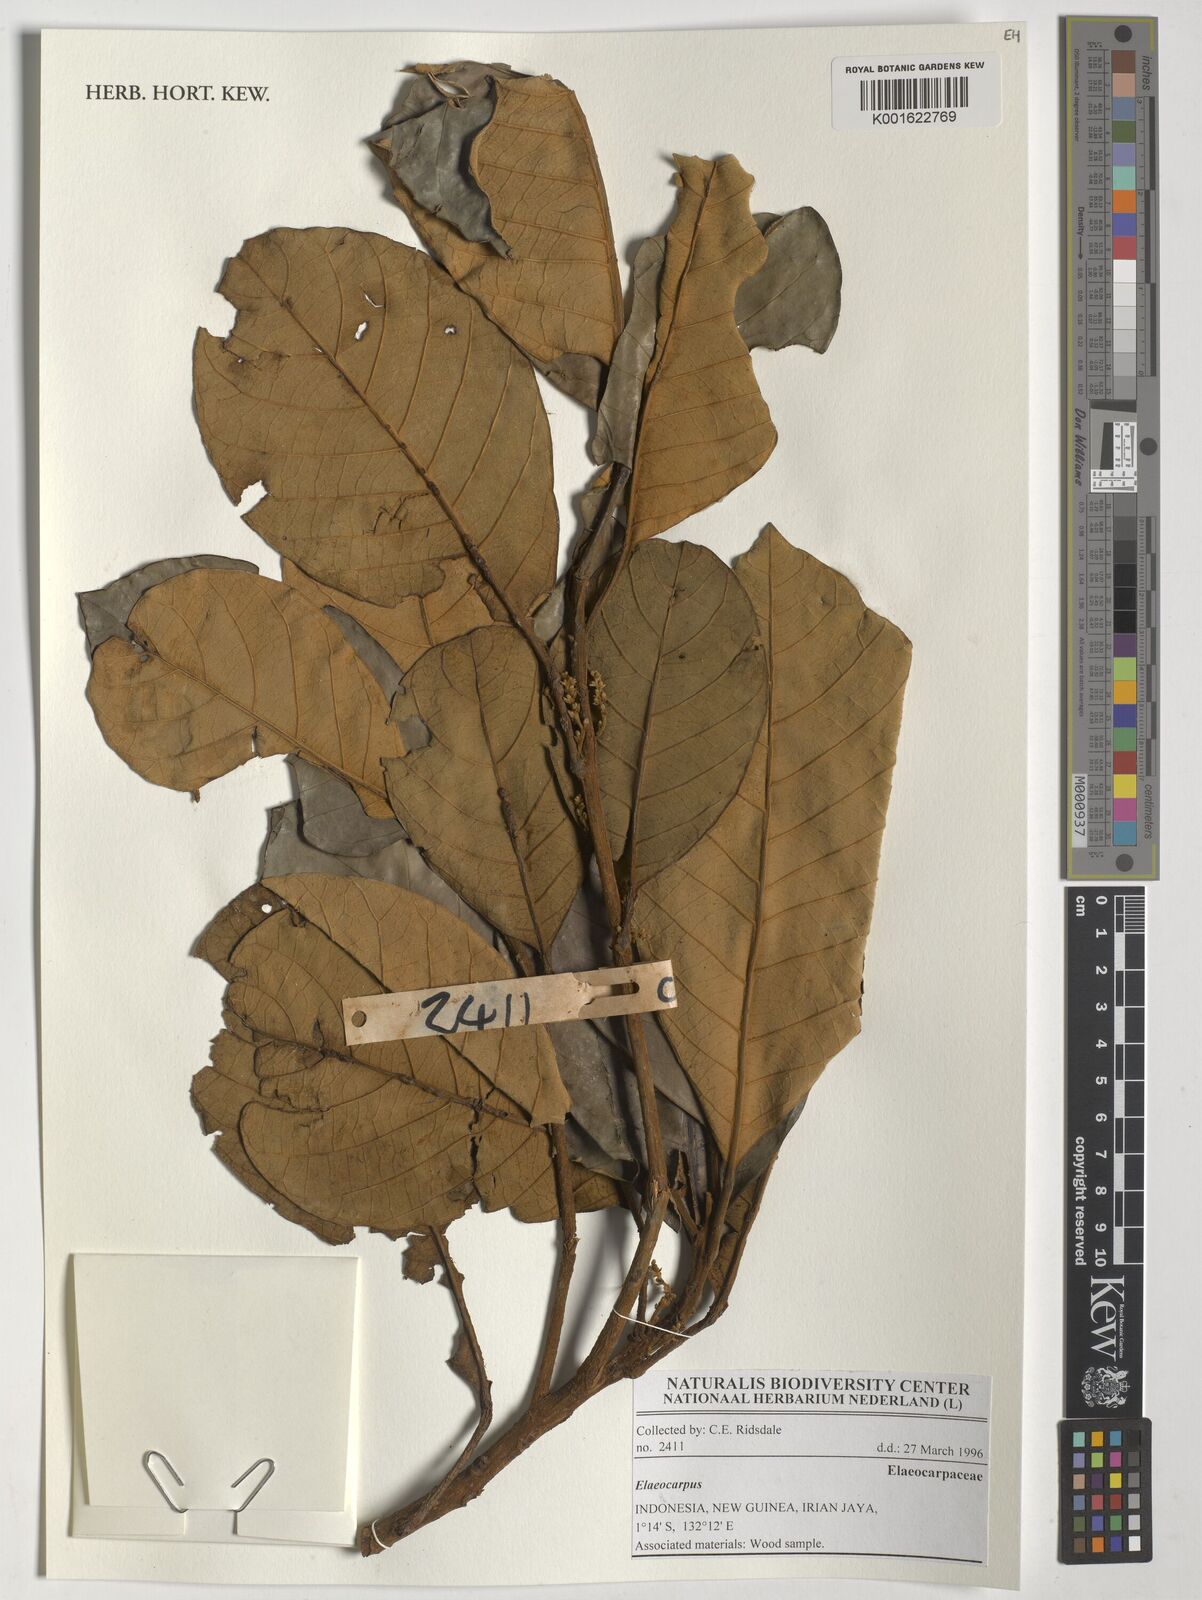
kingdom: Plantae
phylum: Tracheophyta
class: Magnoliopsida
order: Oxalidales
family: Elaeocarpaceae
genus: Elaeocarpus
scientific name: Elaeocarpus
